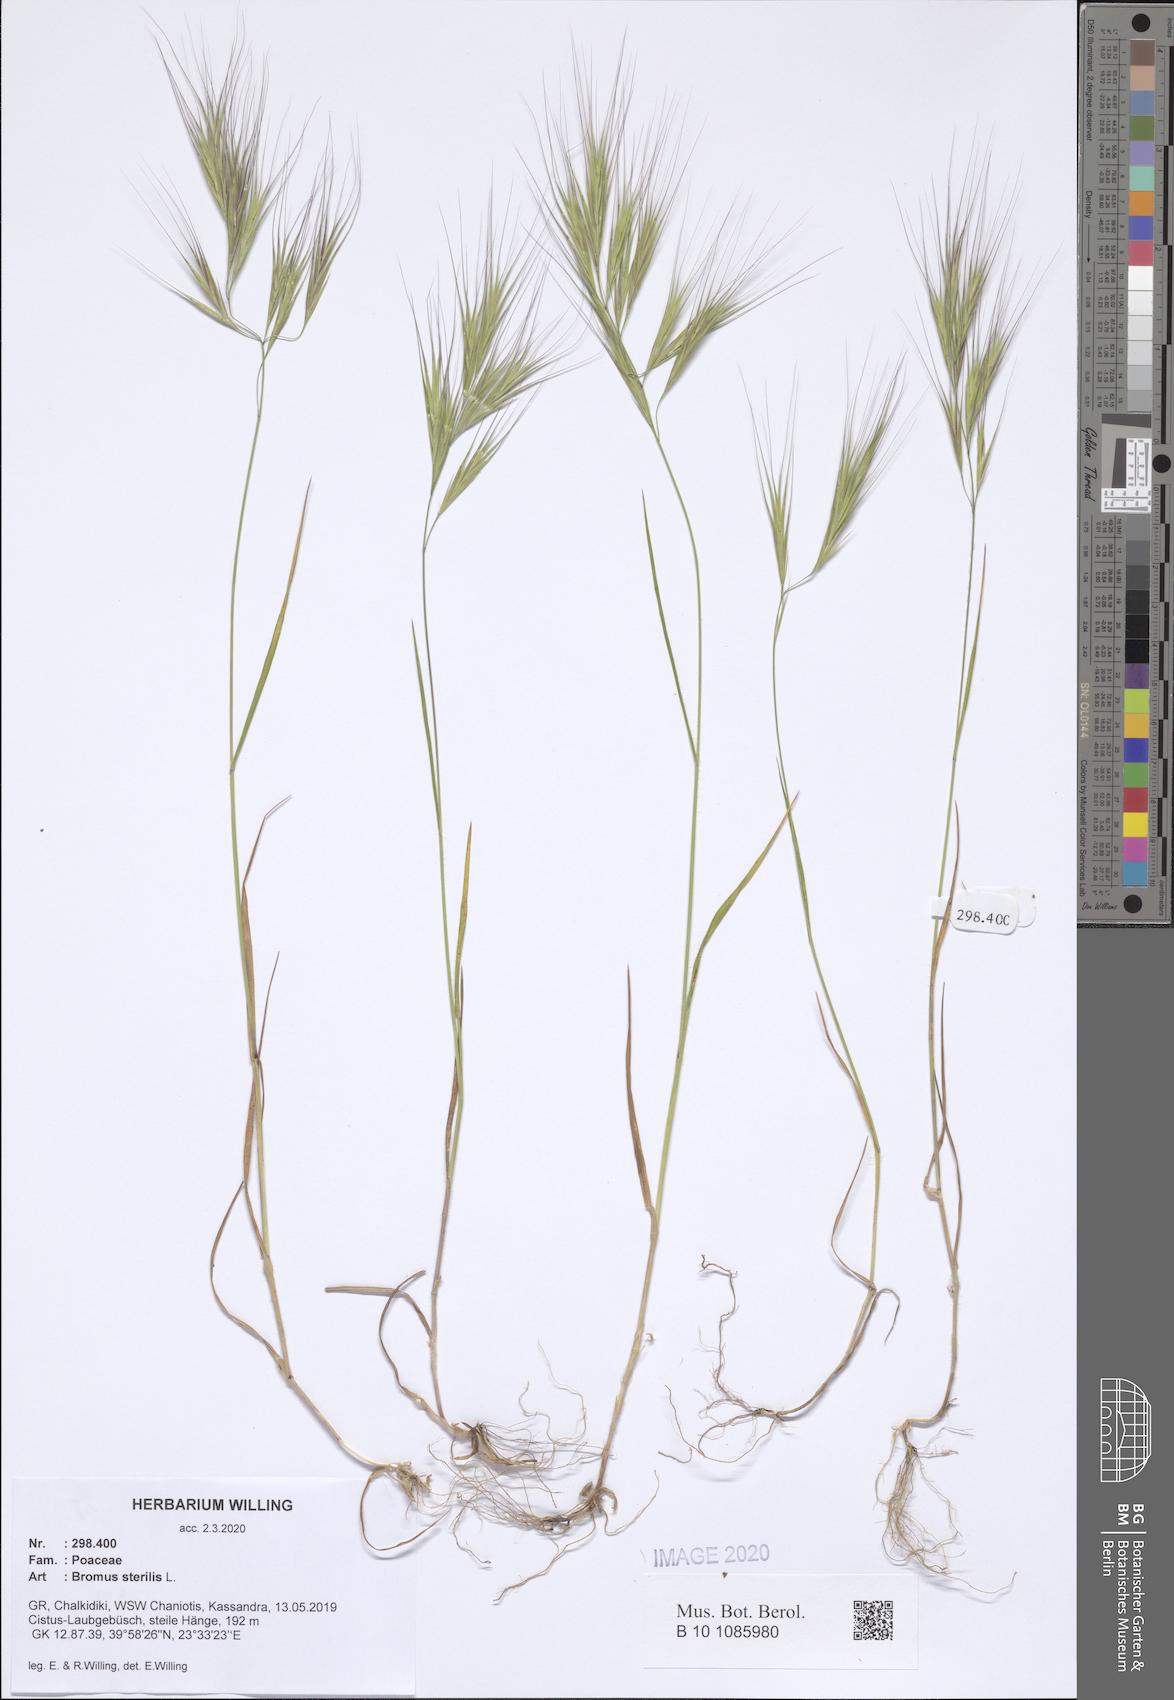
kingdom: Plantae
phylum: Tracheophyta
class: Liliopsida
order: Poales
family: Poaceae
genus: Bromus
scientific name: Bromus sterilis
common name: Poverty brome
